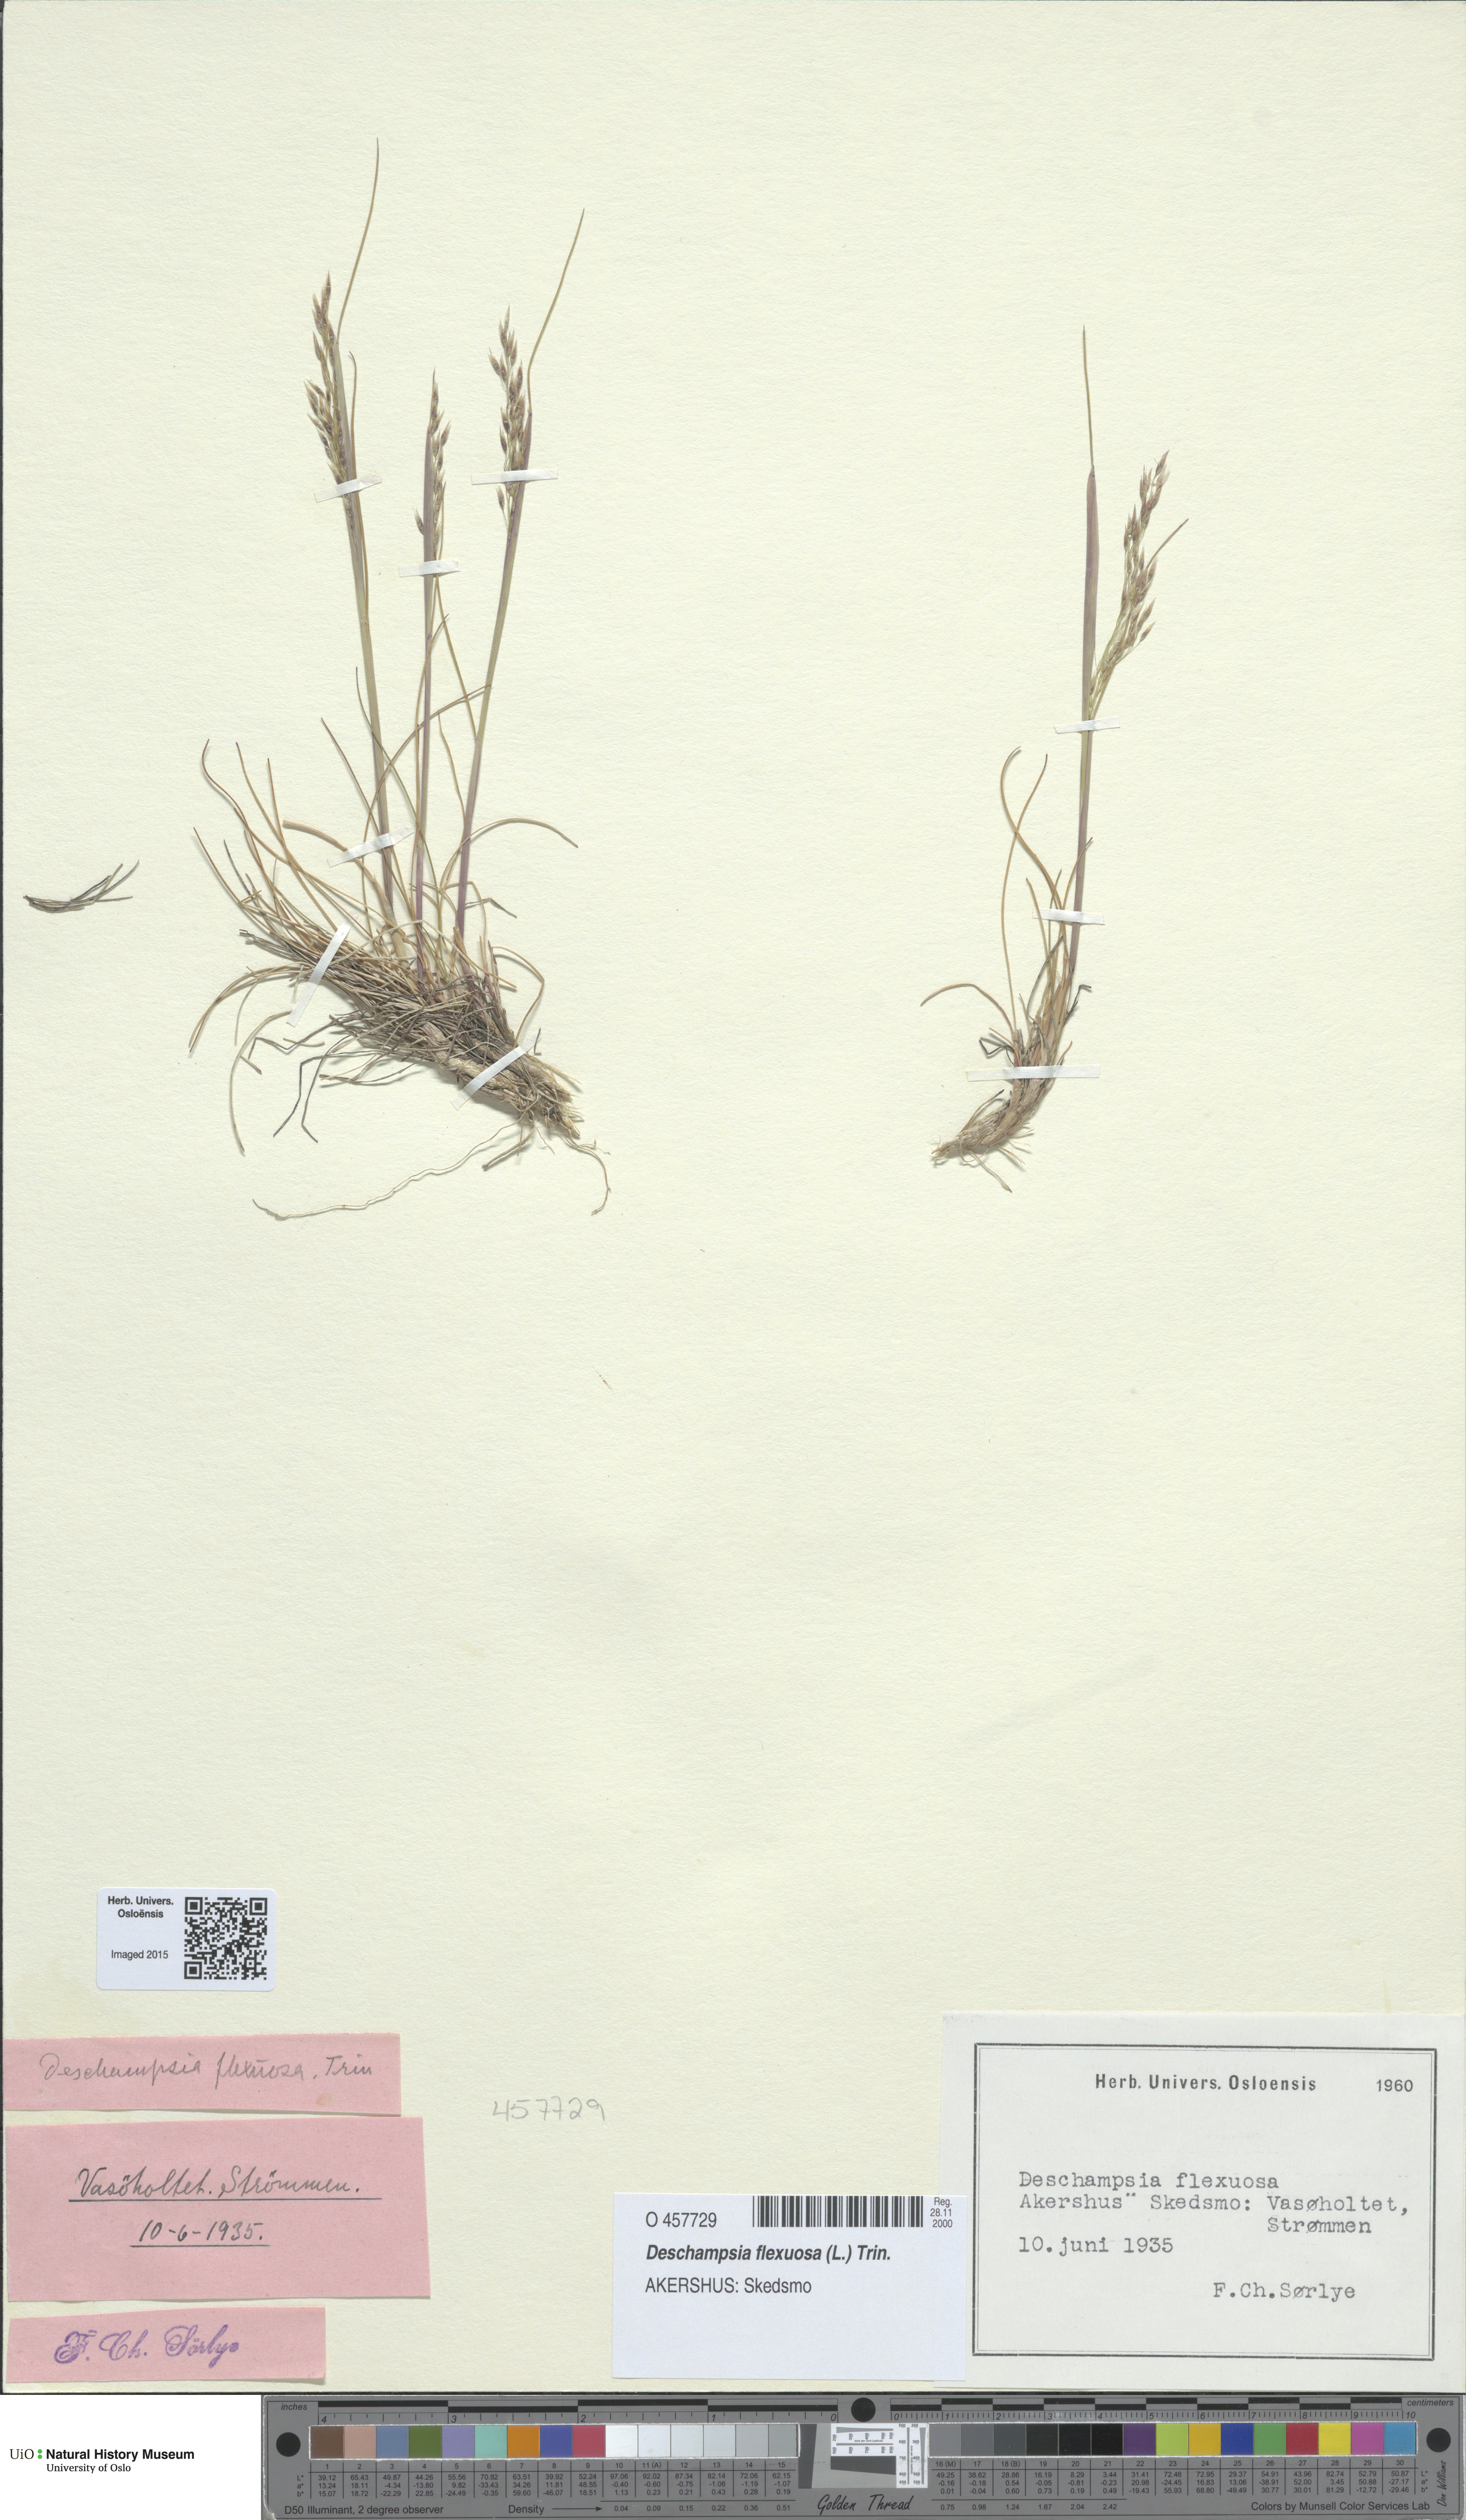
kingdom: Plantae
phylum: Tracheophyta
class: Liliopsida
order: Poales
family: Poaceae
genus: Avenella
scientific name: Avenella flexuosa
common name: Wavy hairgrass
